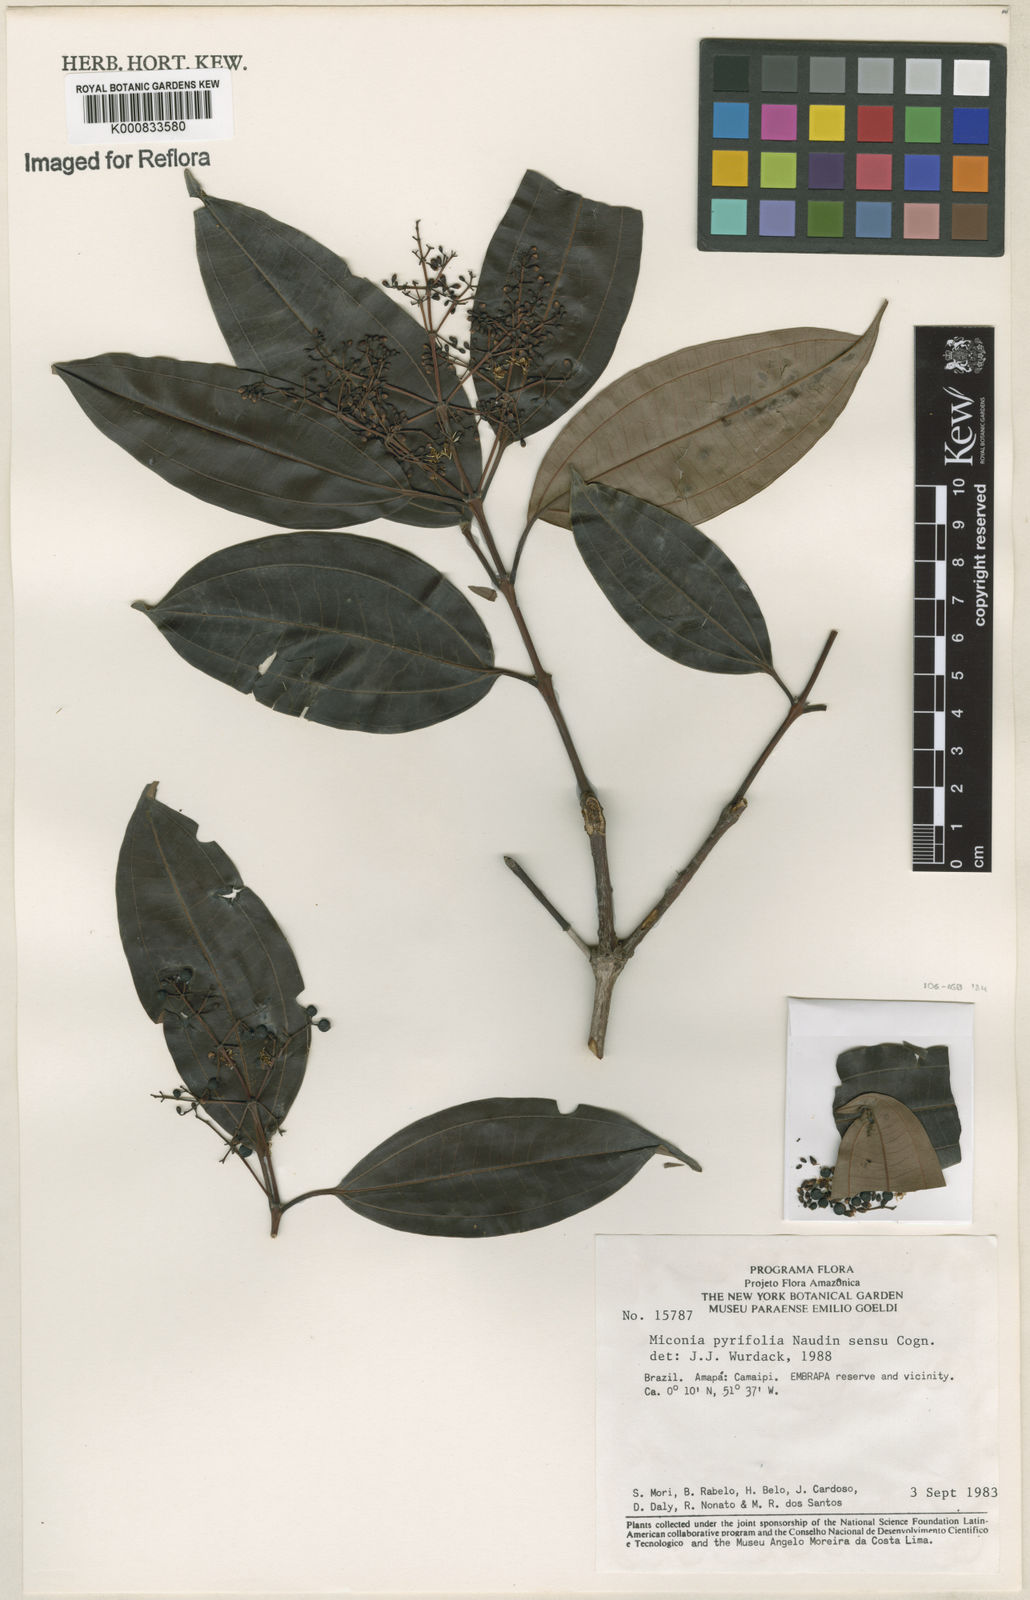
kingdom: Plantae
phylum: Tracheophyta
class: Magnoliopsida
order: Myrtales
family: Melastomataceae
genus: Miconia
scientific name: Miconia pyrifolia
